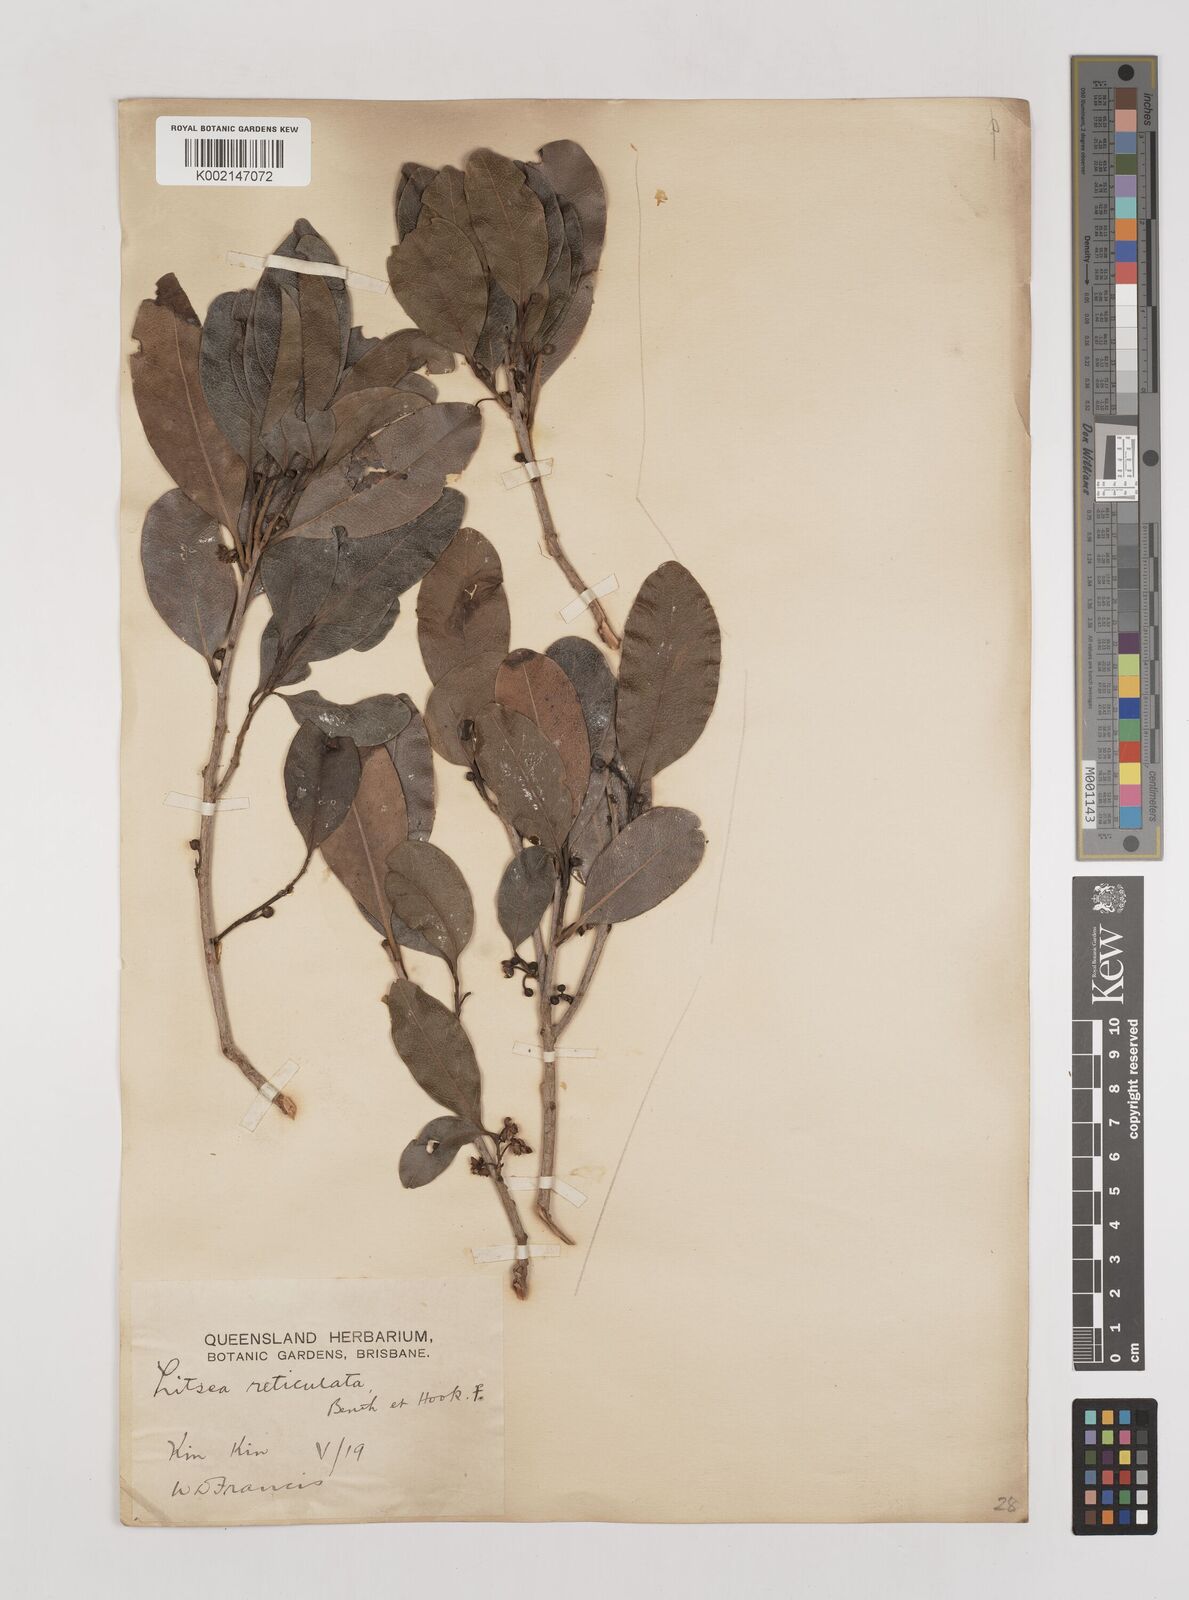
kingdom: Plantae
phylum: Tracheophyta
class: Magnoliopsida
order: Laurales
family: Lauraceae
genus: Litsea
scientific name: Litsea reticulata
